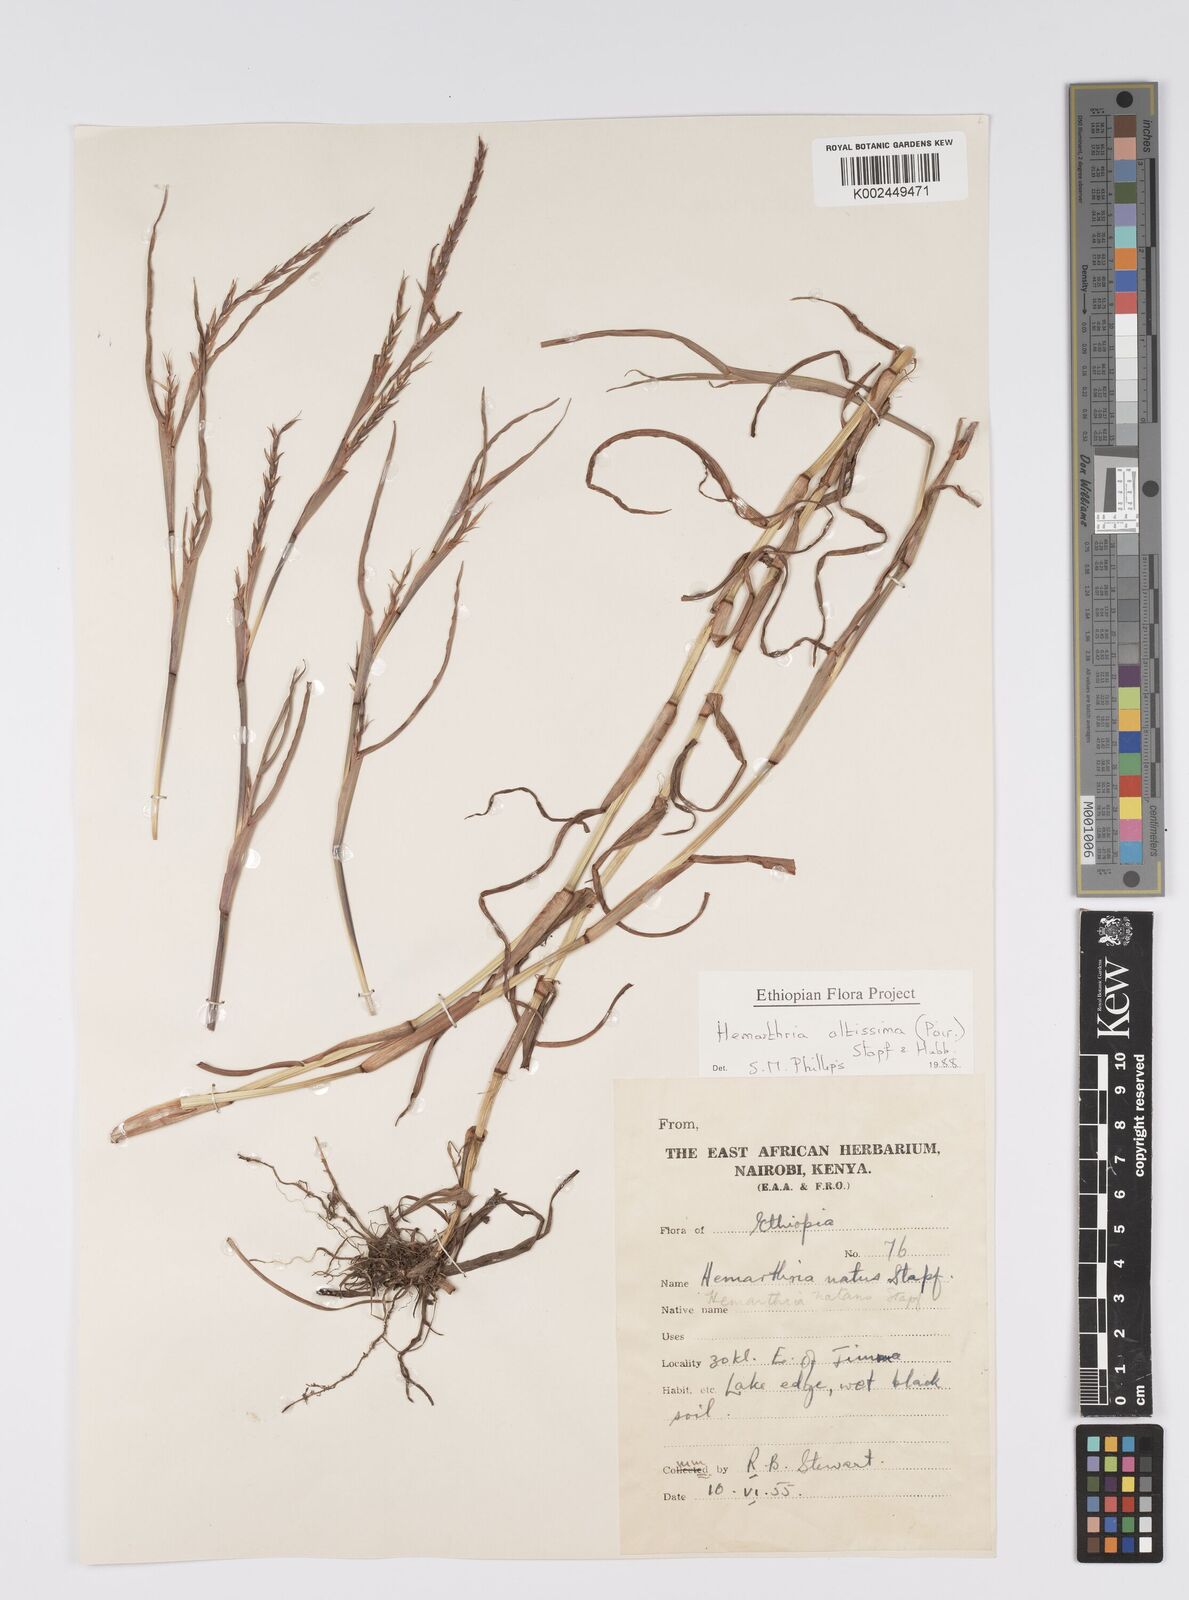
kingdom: Plantae
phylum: Tracheophyta
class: Liliopsida
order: Poales
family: Poaceae
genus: Hemarthria
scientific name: Hemarthria altissima
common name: African jointgrass
